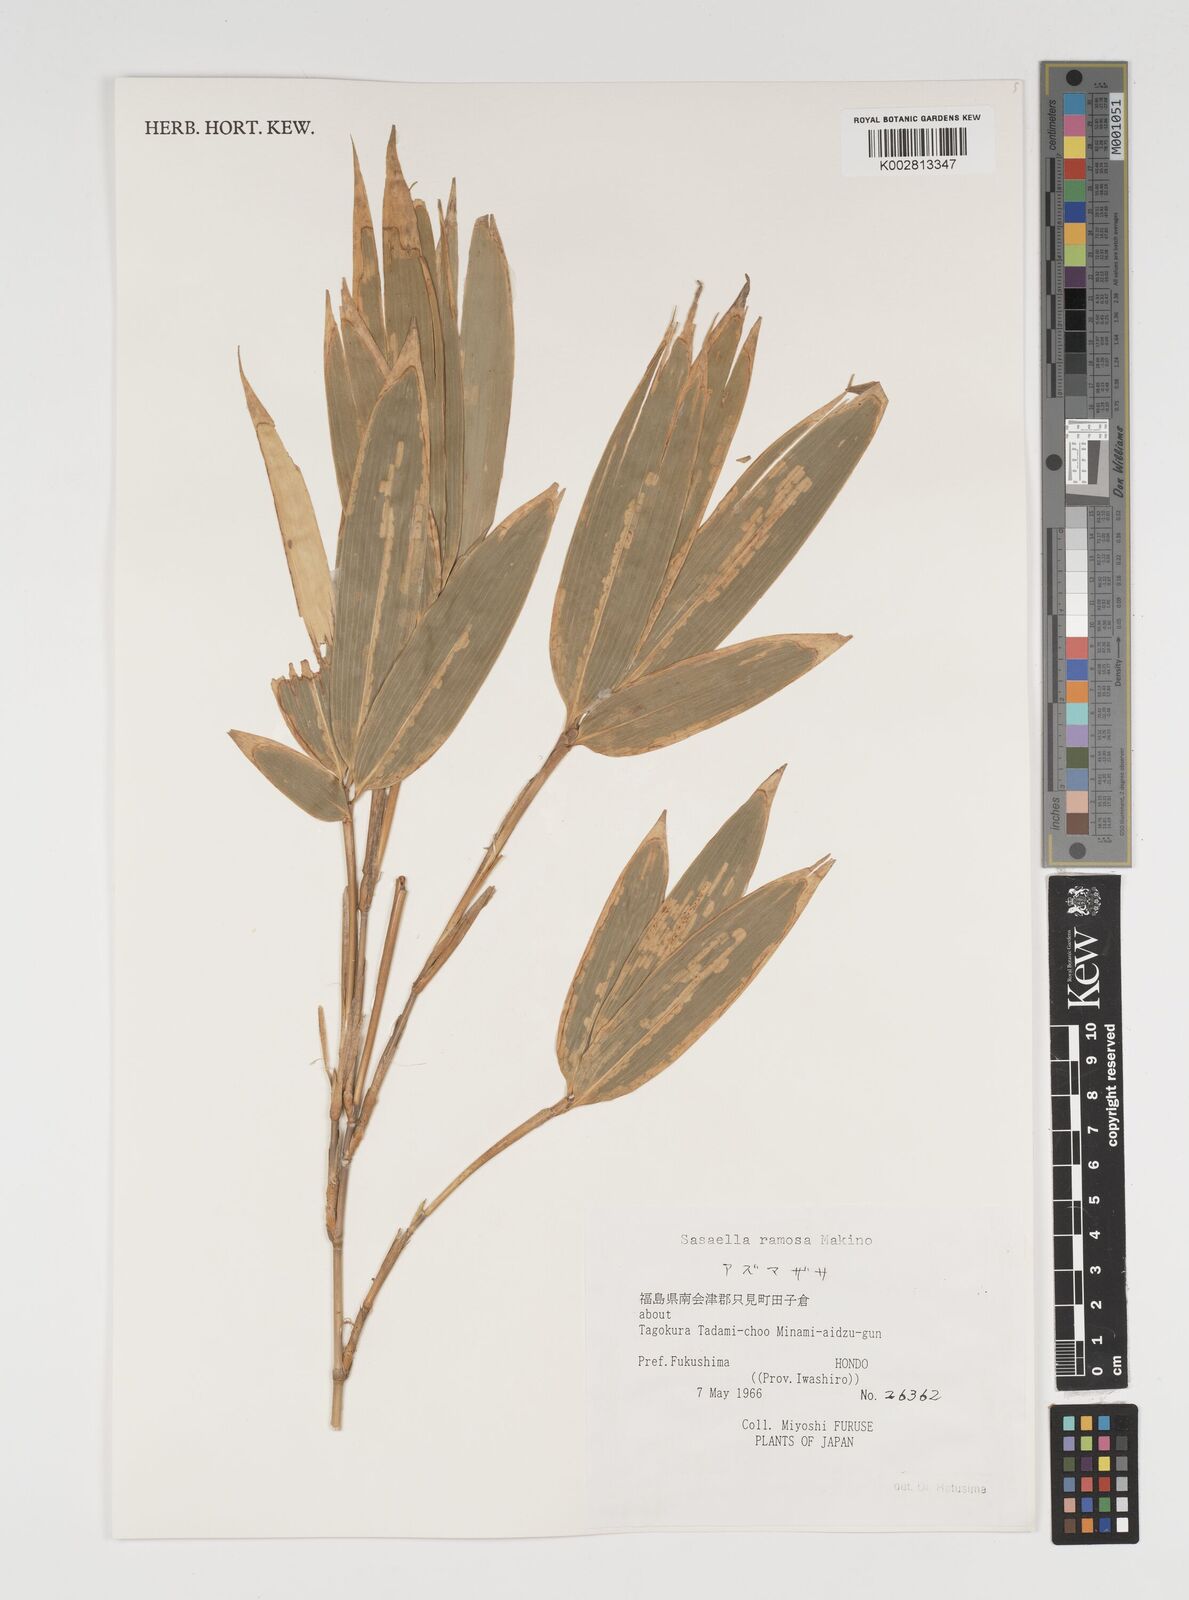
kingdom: Plantae
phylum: Tracheophyta
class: Liliopsida
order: Poales
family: Poaceae
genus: Sasaella
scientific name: Sasaella ramosa
